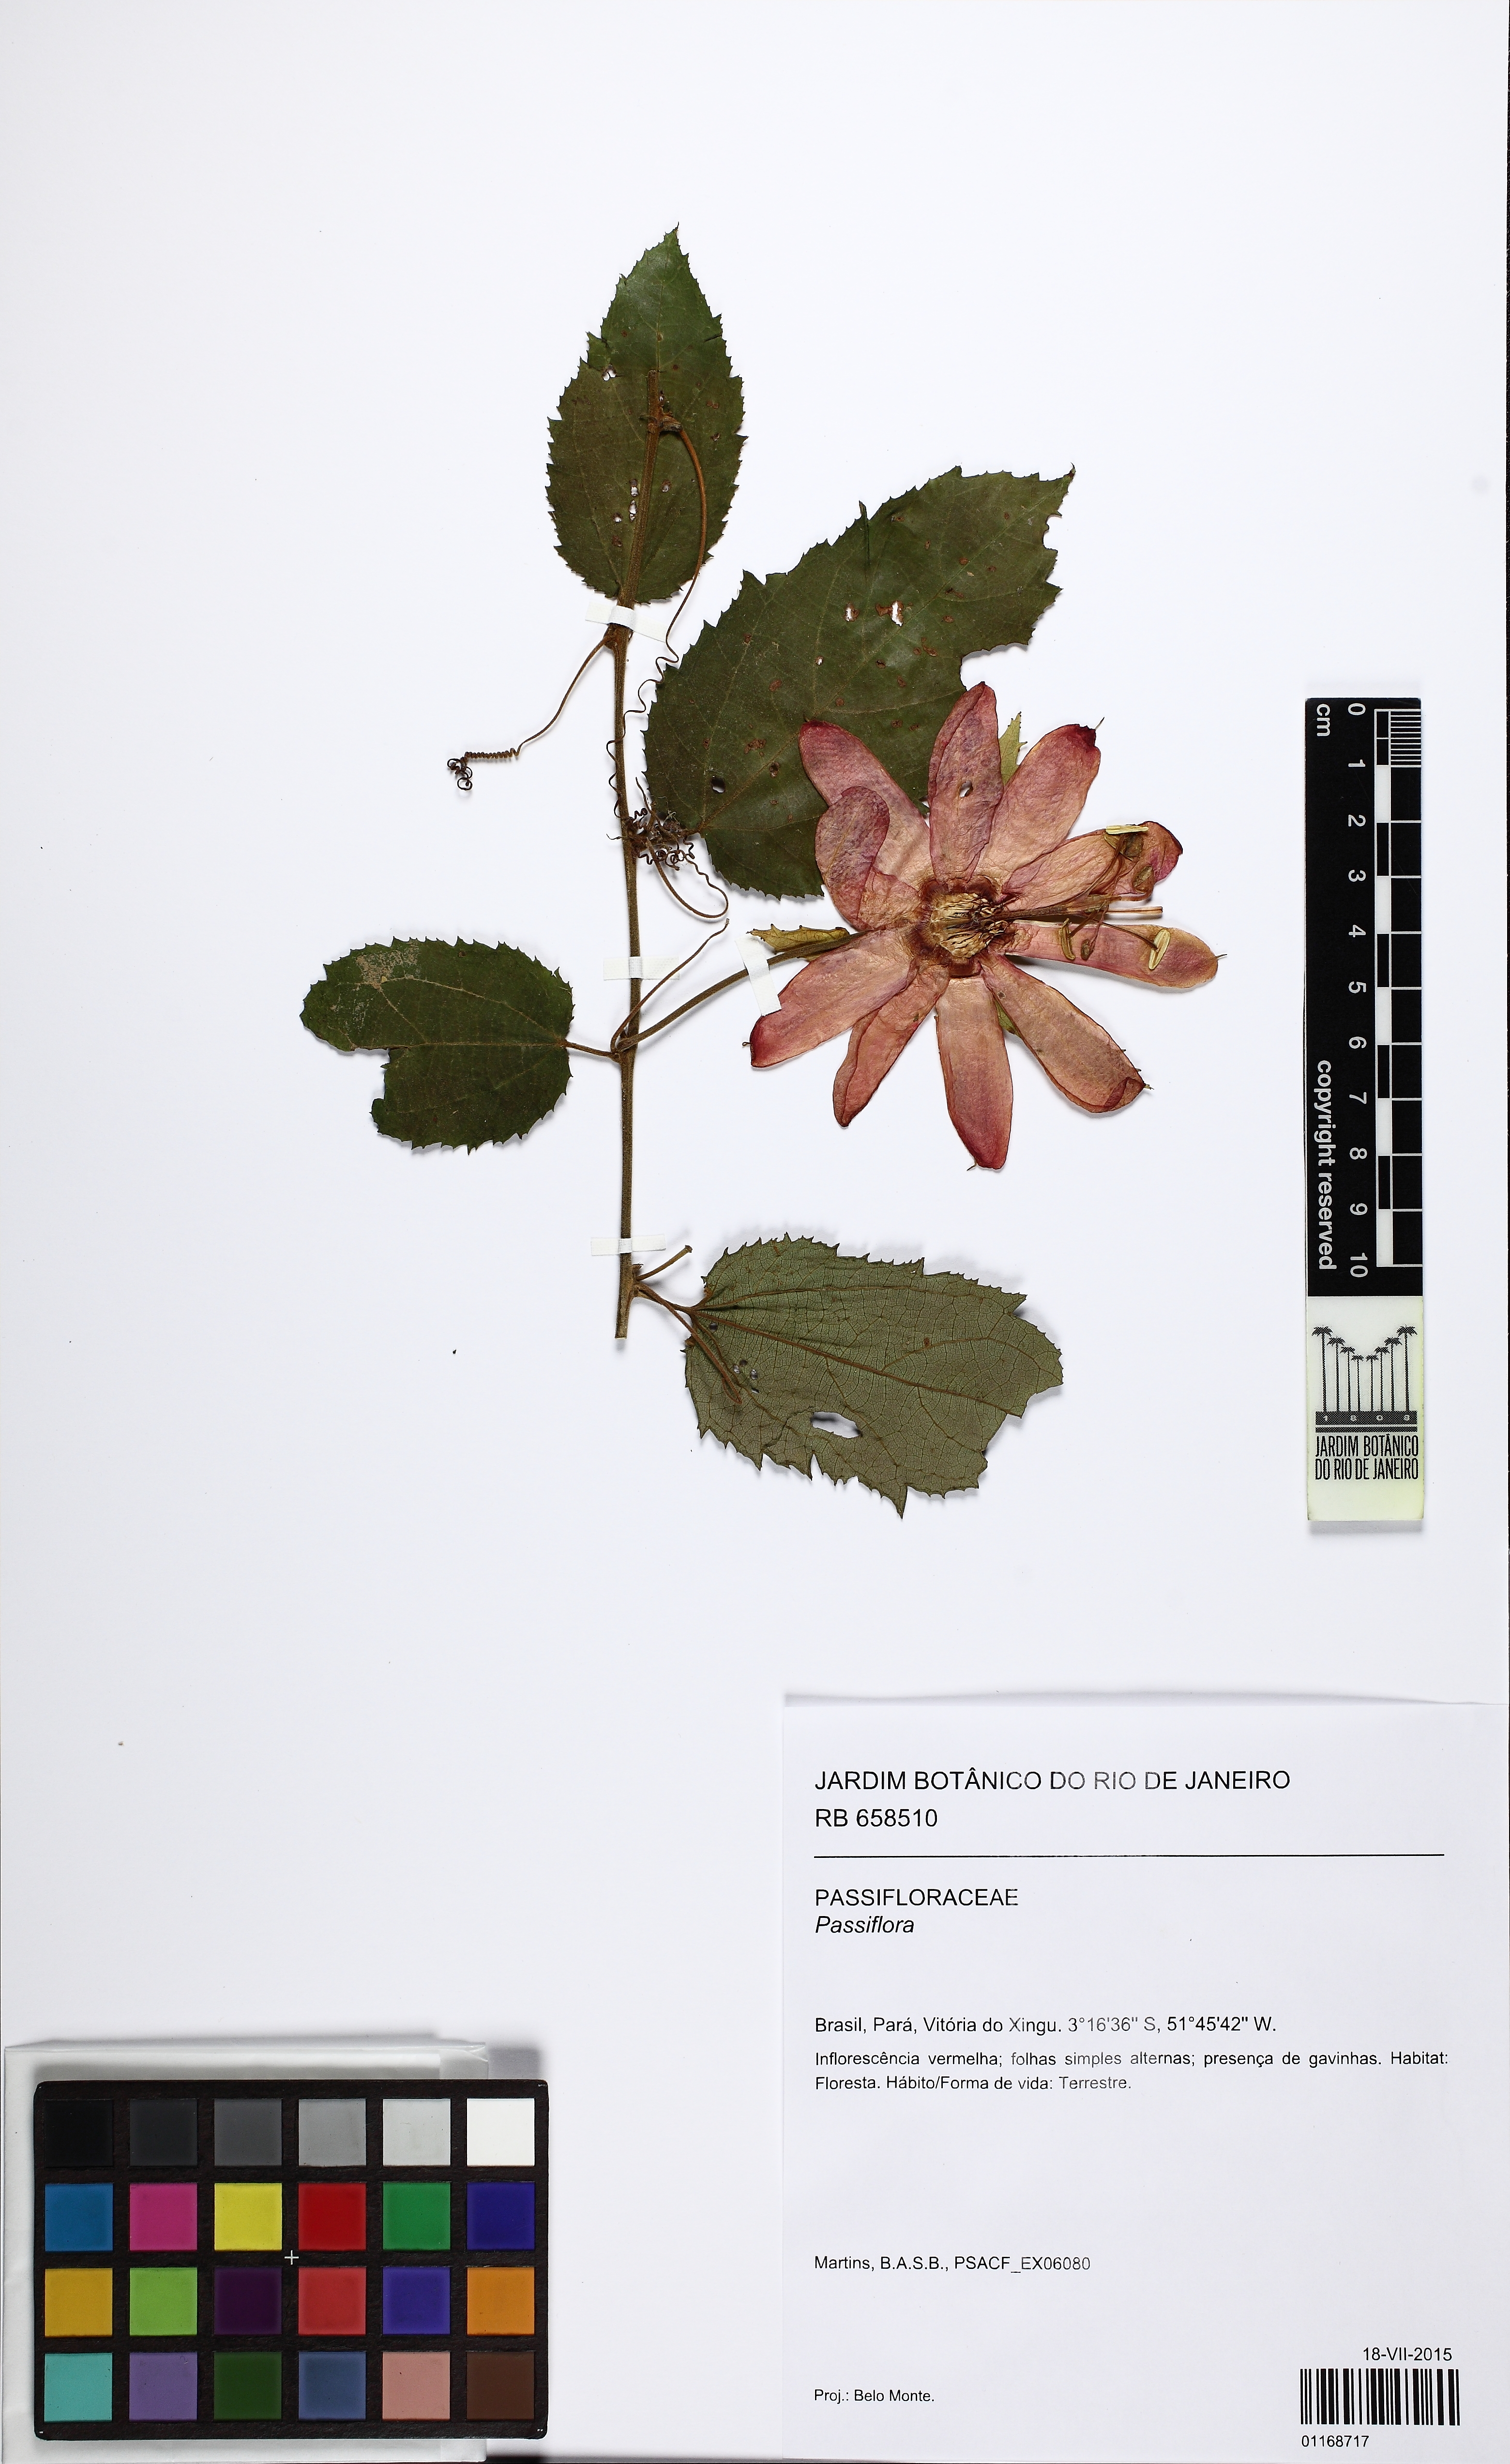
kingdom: Plantae
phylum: Tracheophyta
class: Magnoliopsida
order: Malpighiales
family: Passifloraceae
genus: Passiflora
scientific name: Passiflora araujoi
